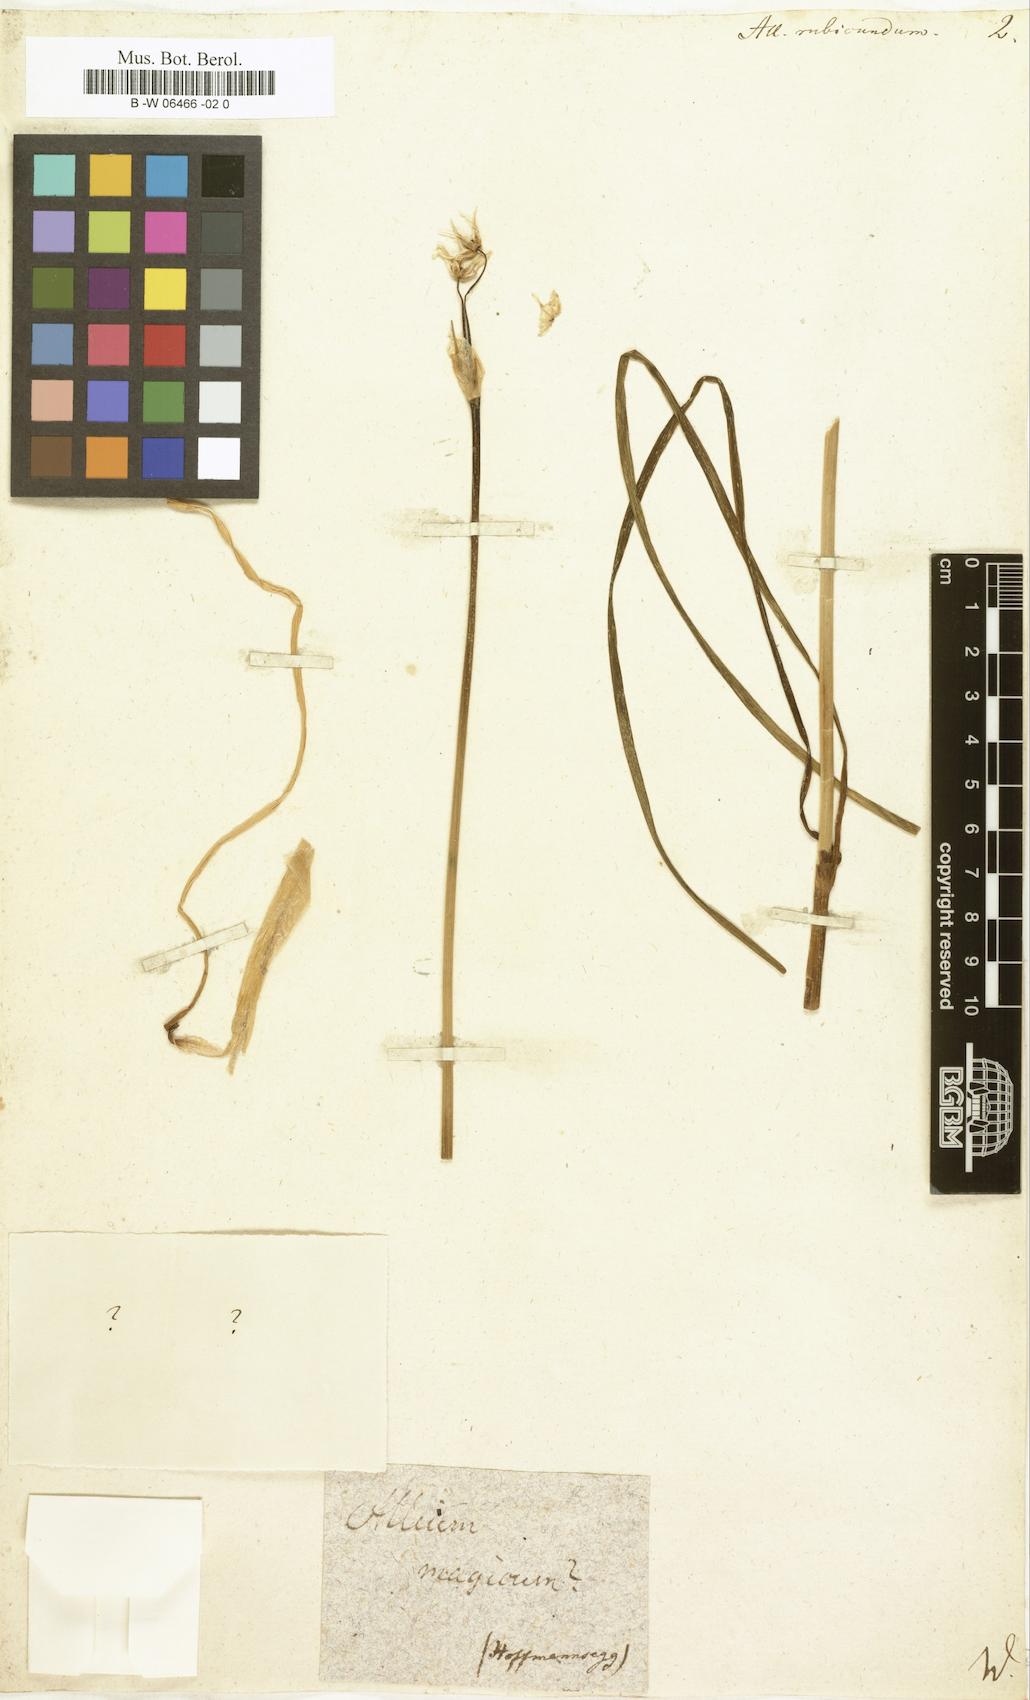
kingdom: Plantae
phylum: Tracheophyta
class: Liliopsida
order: Asparagales
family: Amaryllidaceae
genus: Allium
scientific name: Allium
